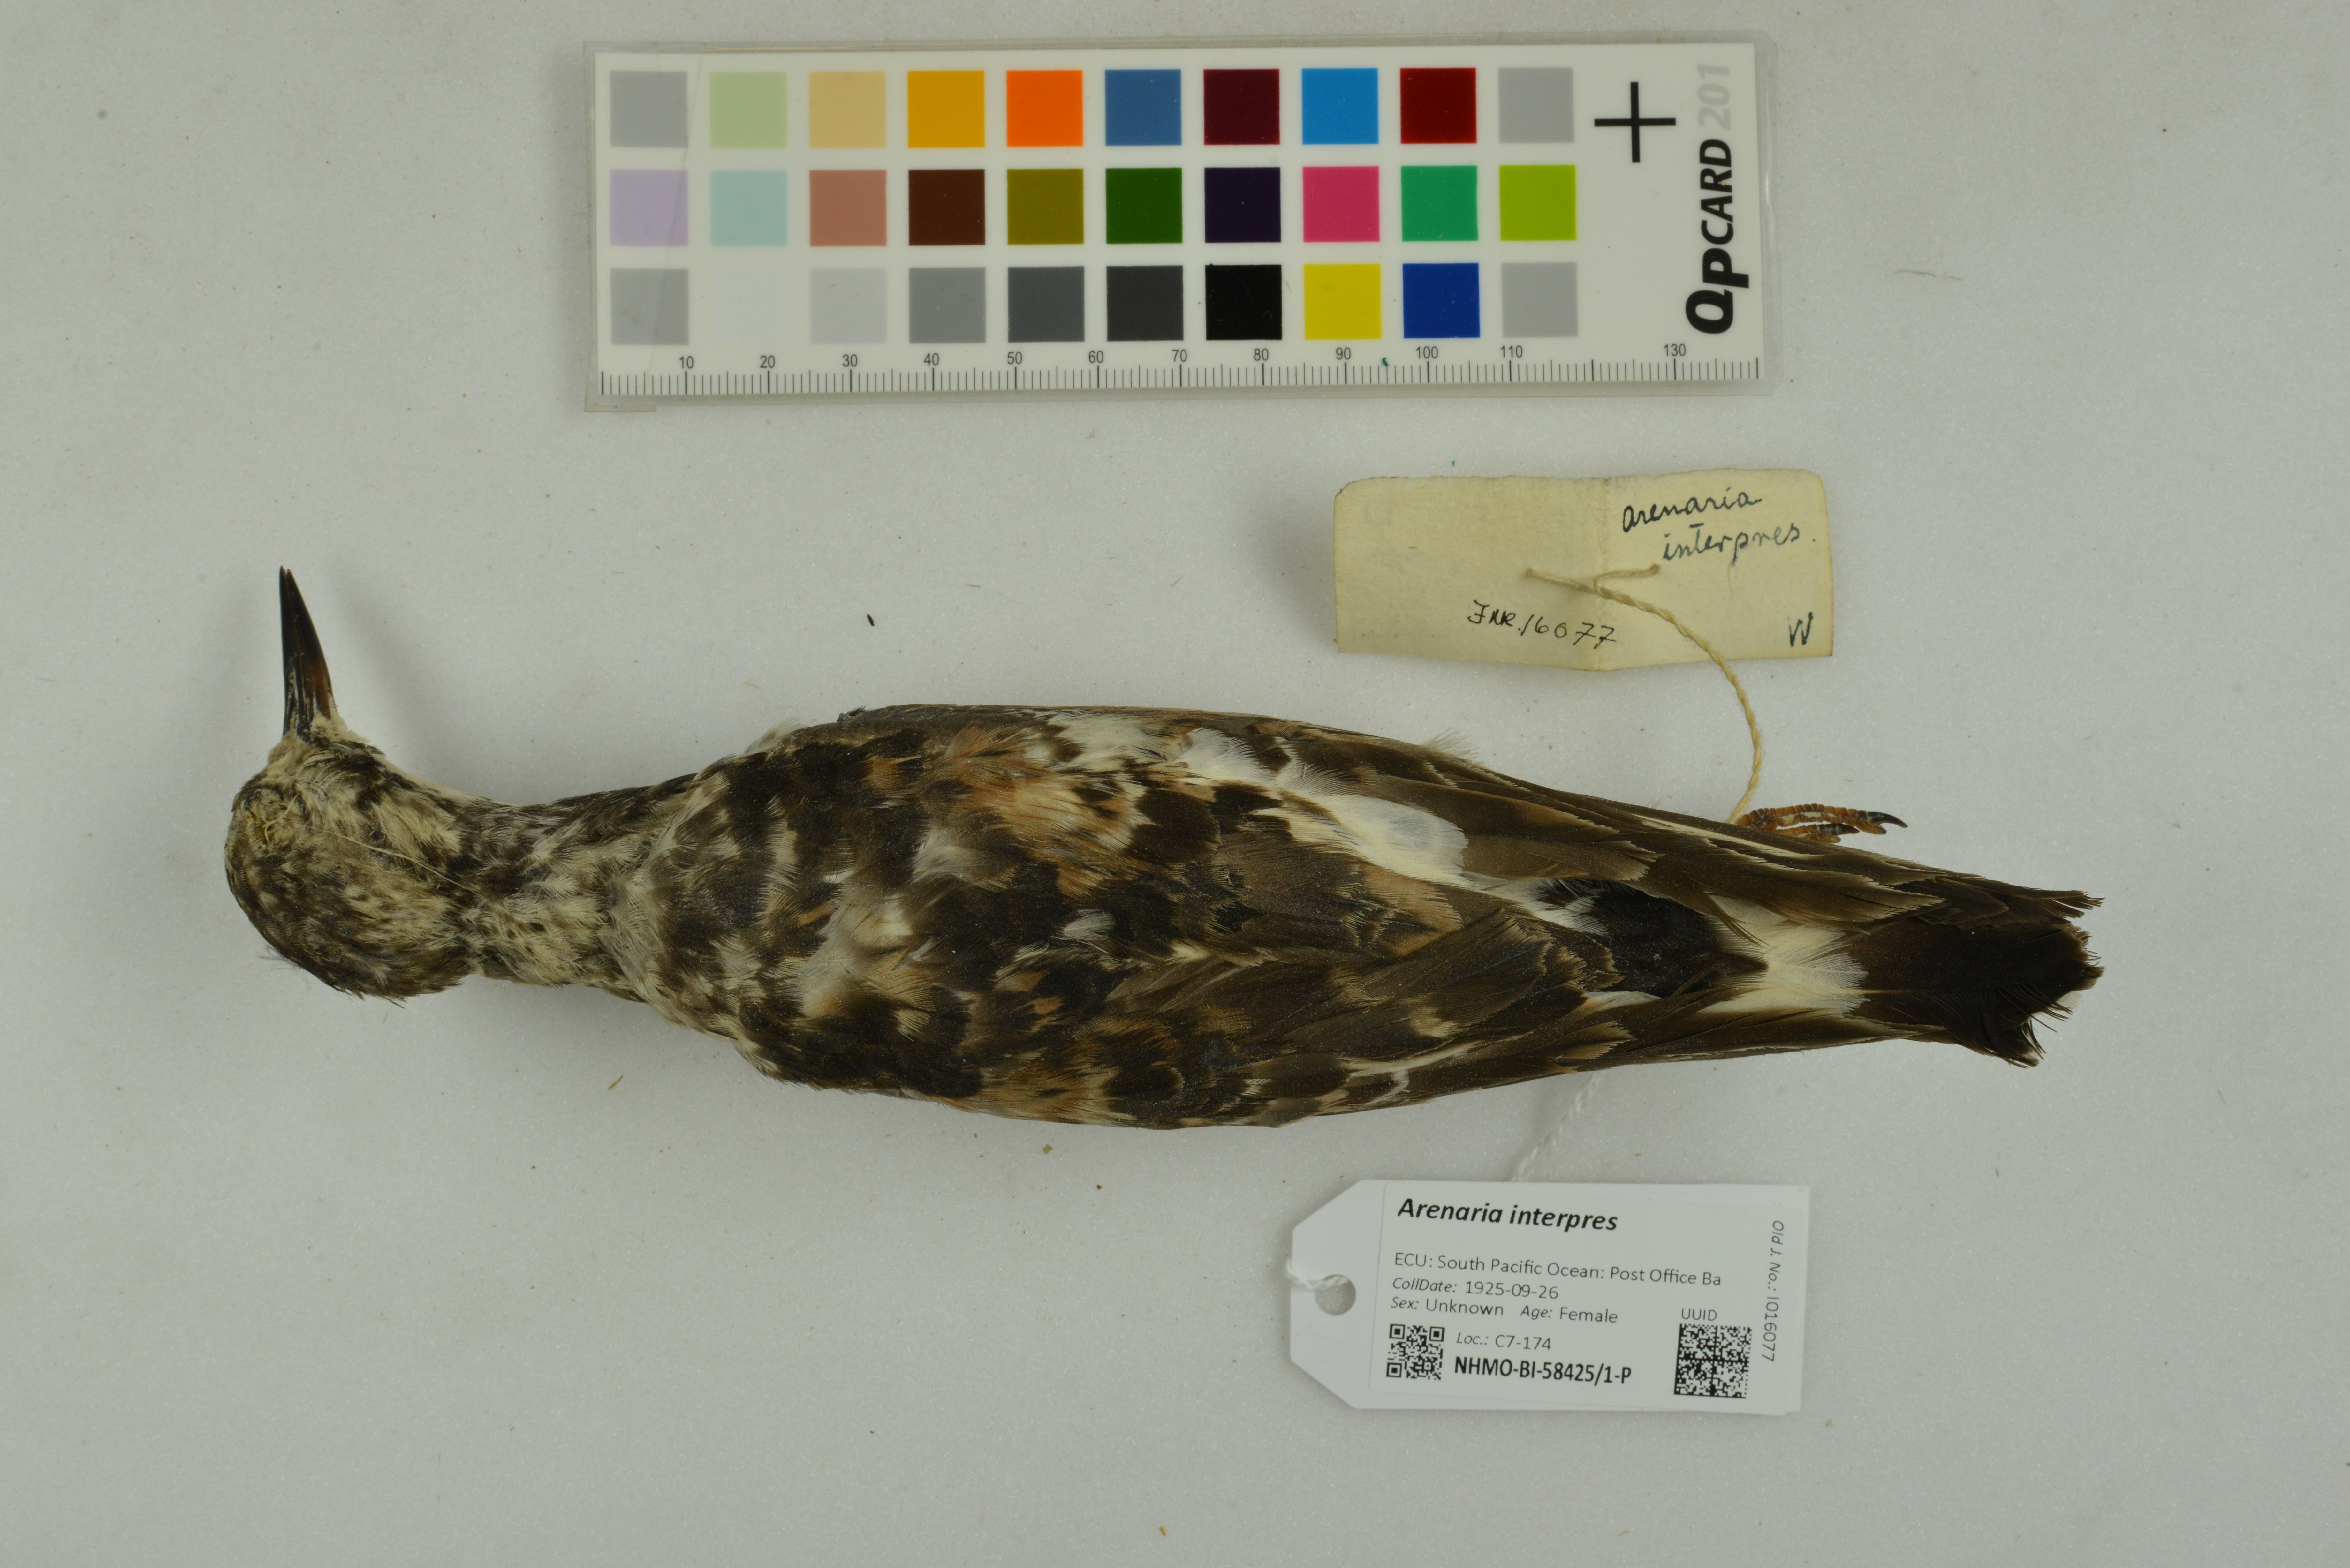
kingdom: Animalia
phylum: Chordata
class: Aves
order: Charadriiformes
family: Scolopacidae
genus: Arenaria
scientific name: Arenaria interpres
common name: Ruddy turnstone
